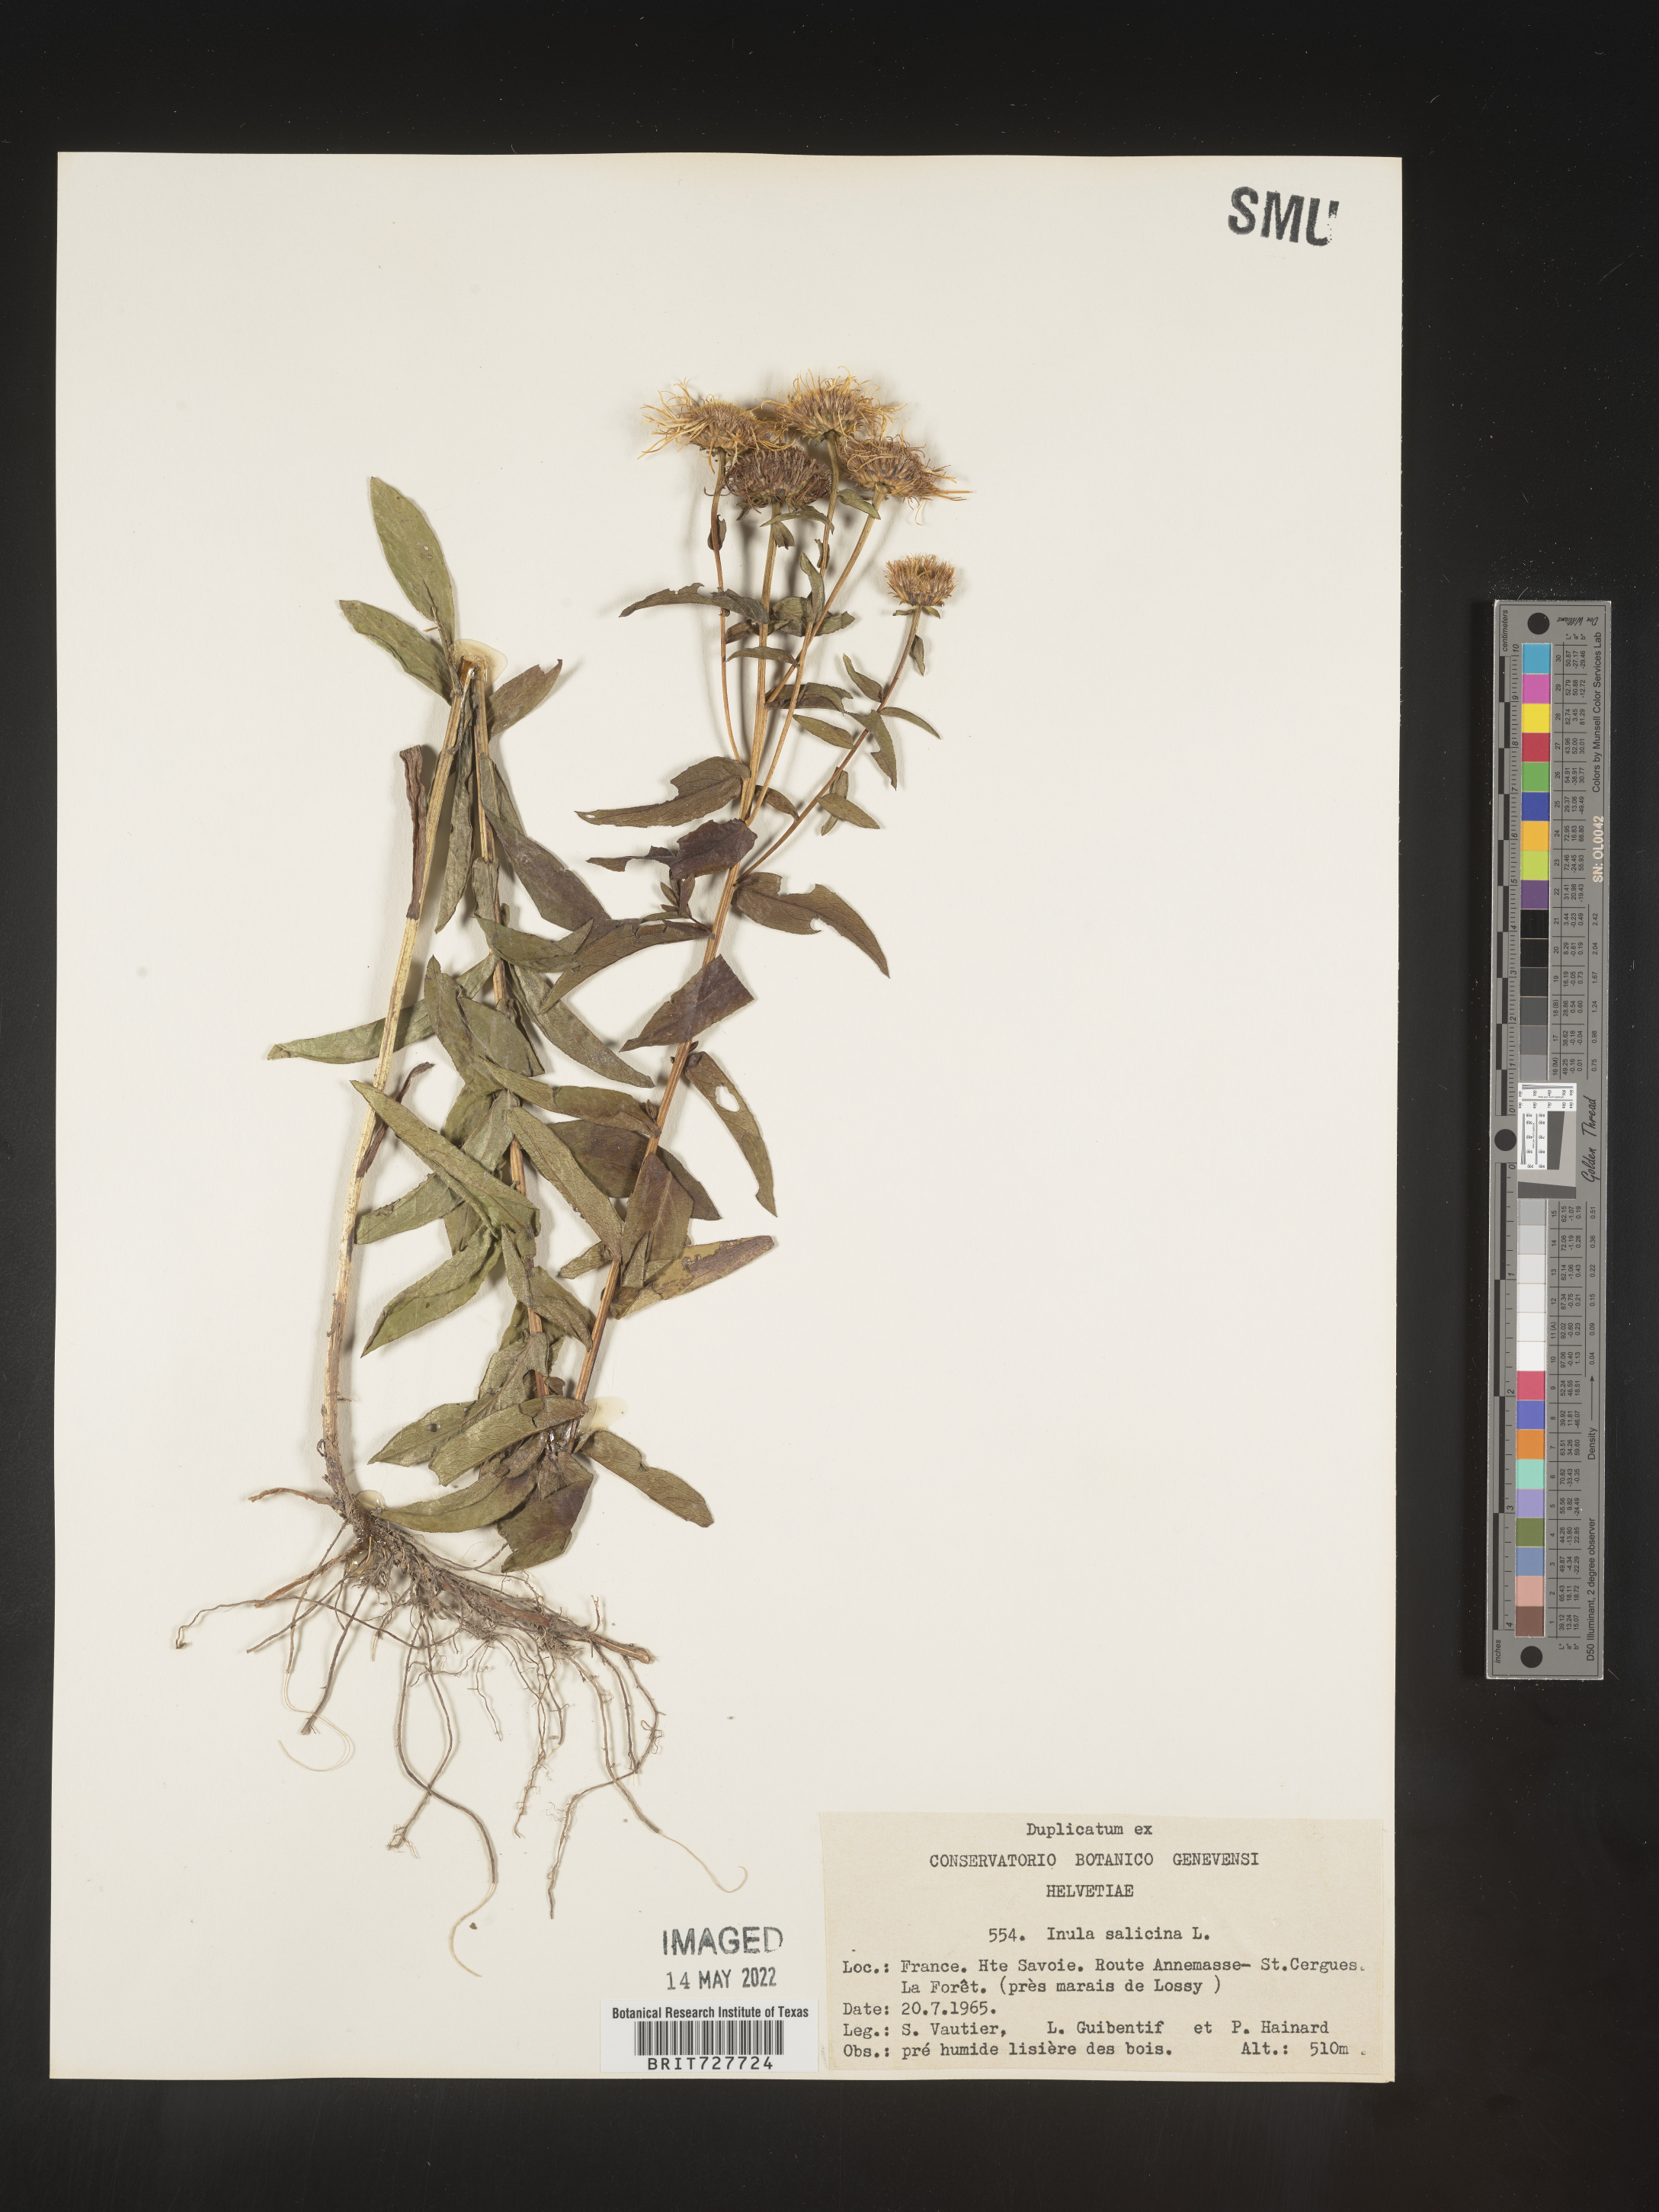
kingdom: Plantae
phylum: Tracheophyta
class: Magnoliopsida
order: Asterales
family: Asteraceae
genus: Inula
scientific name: Inula
